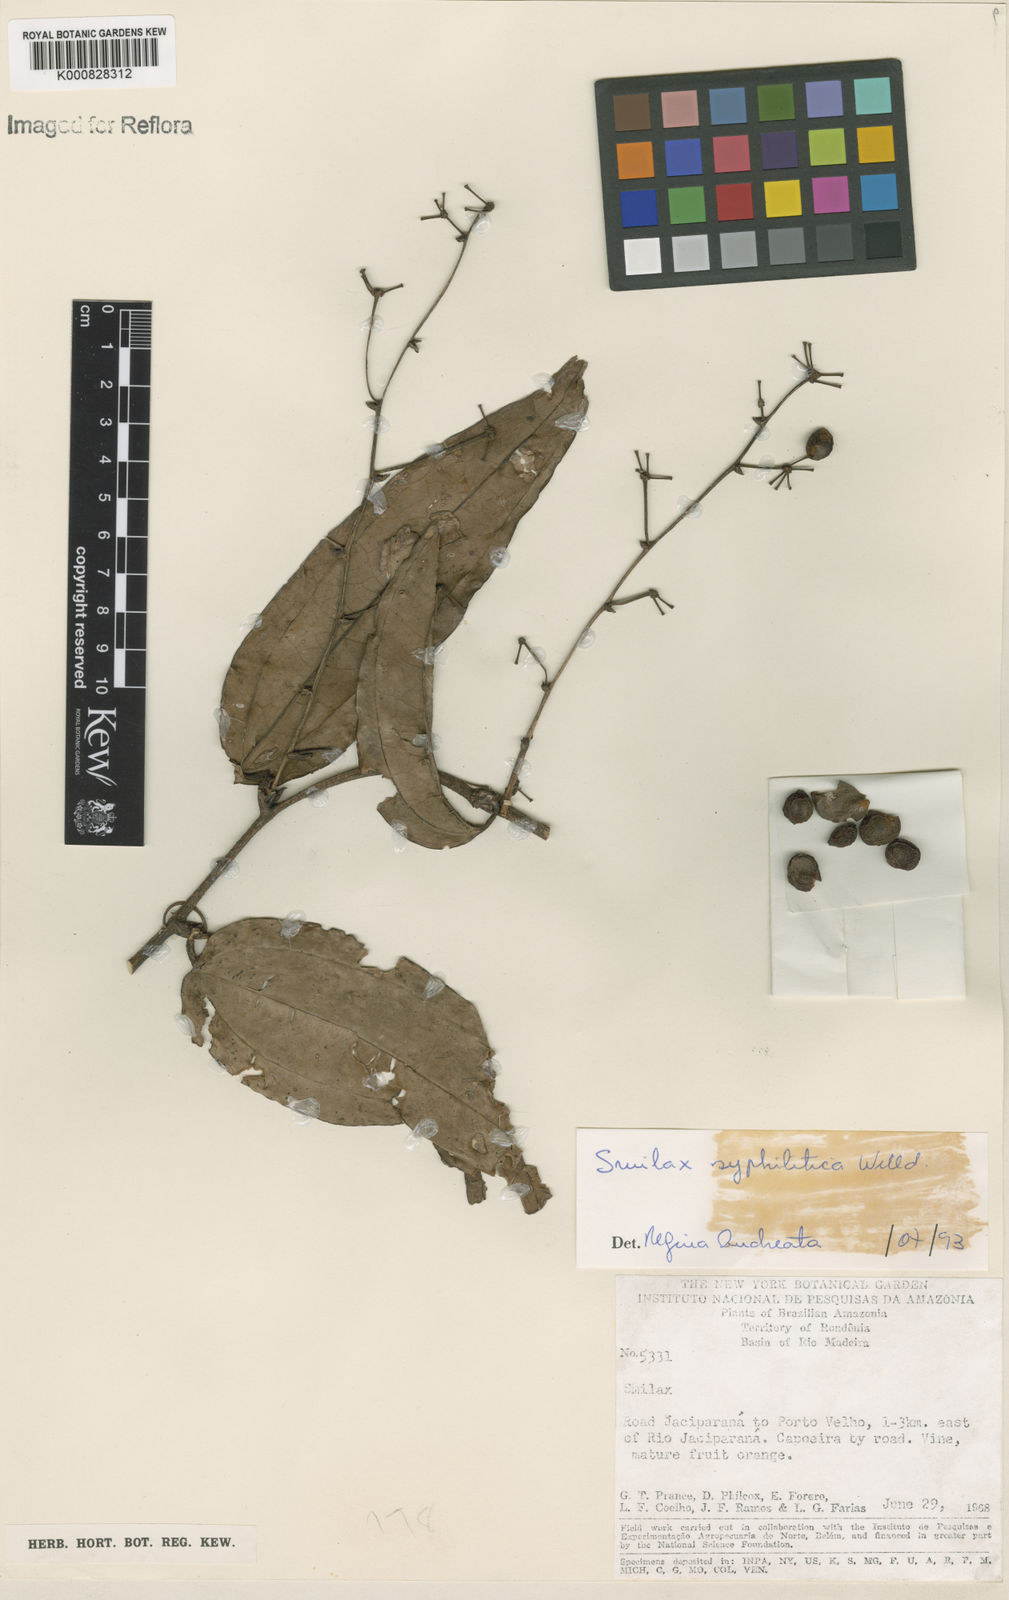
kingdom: Plantae
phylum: Tracheophyta
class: Liliopsida
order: Liliales
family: Smilacaceae
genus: Smilax
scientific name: Smilax siphilitica
